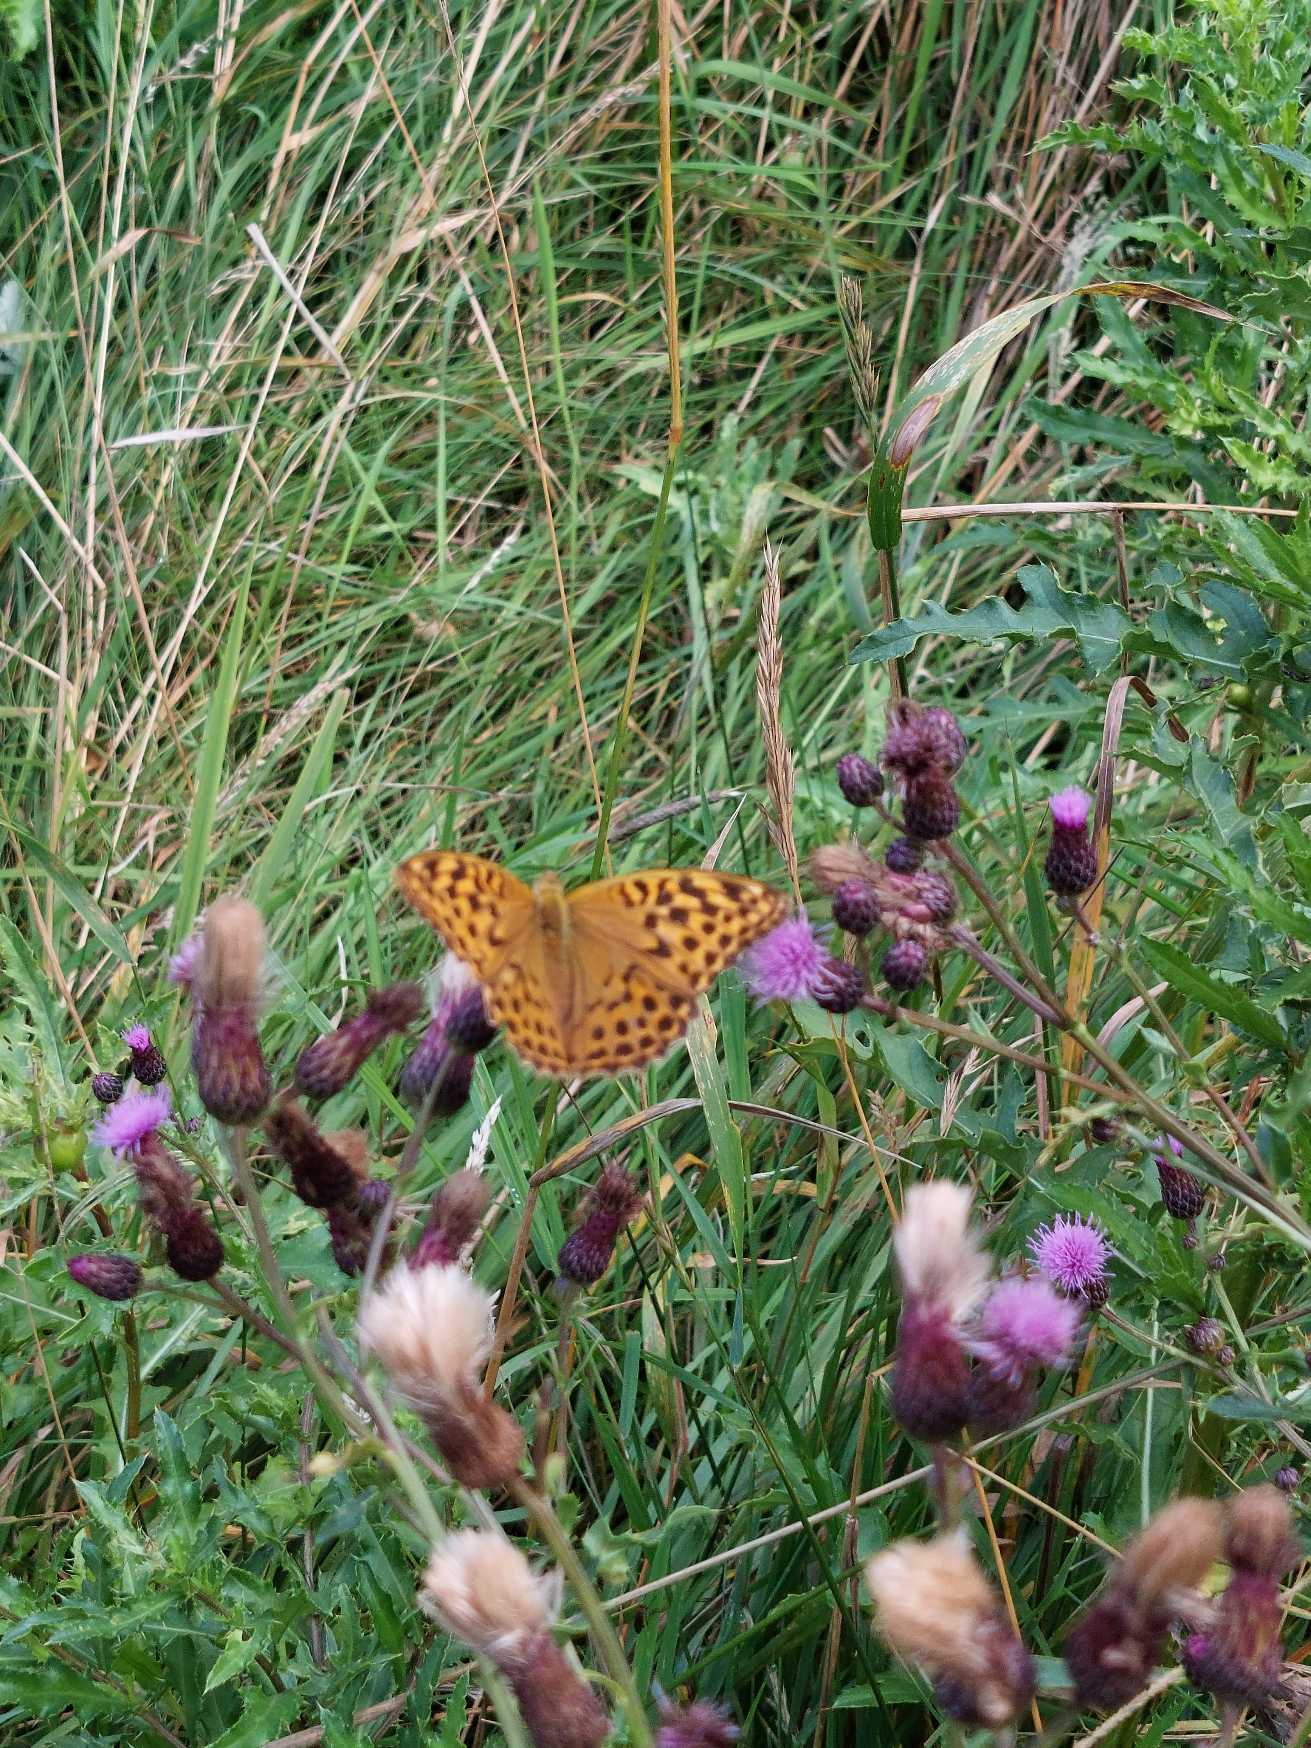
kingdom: Animalia
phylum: Arthropoda
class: Insecta
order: Lepidoptera
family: Nymphalidae
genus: Argynnis
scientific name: Argynnis paphia
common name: Kejserkåbe
